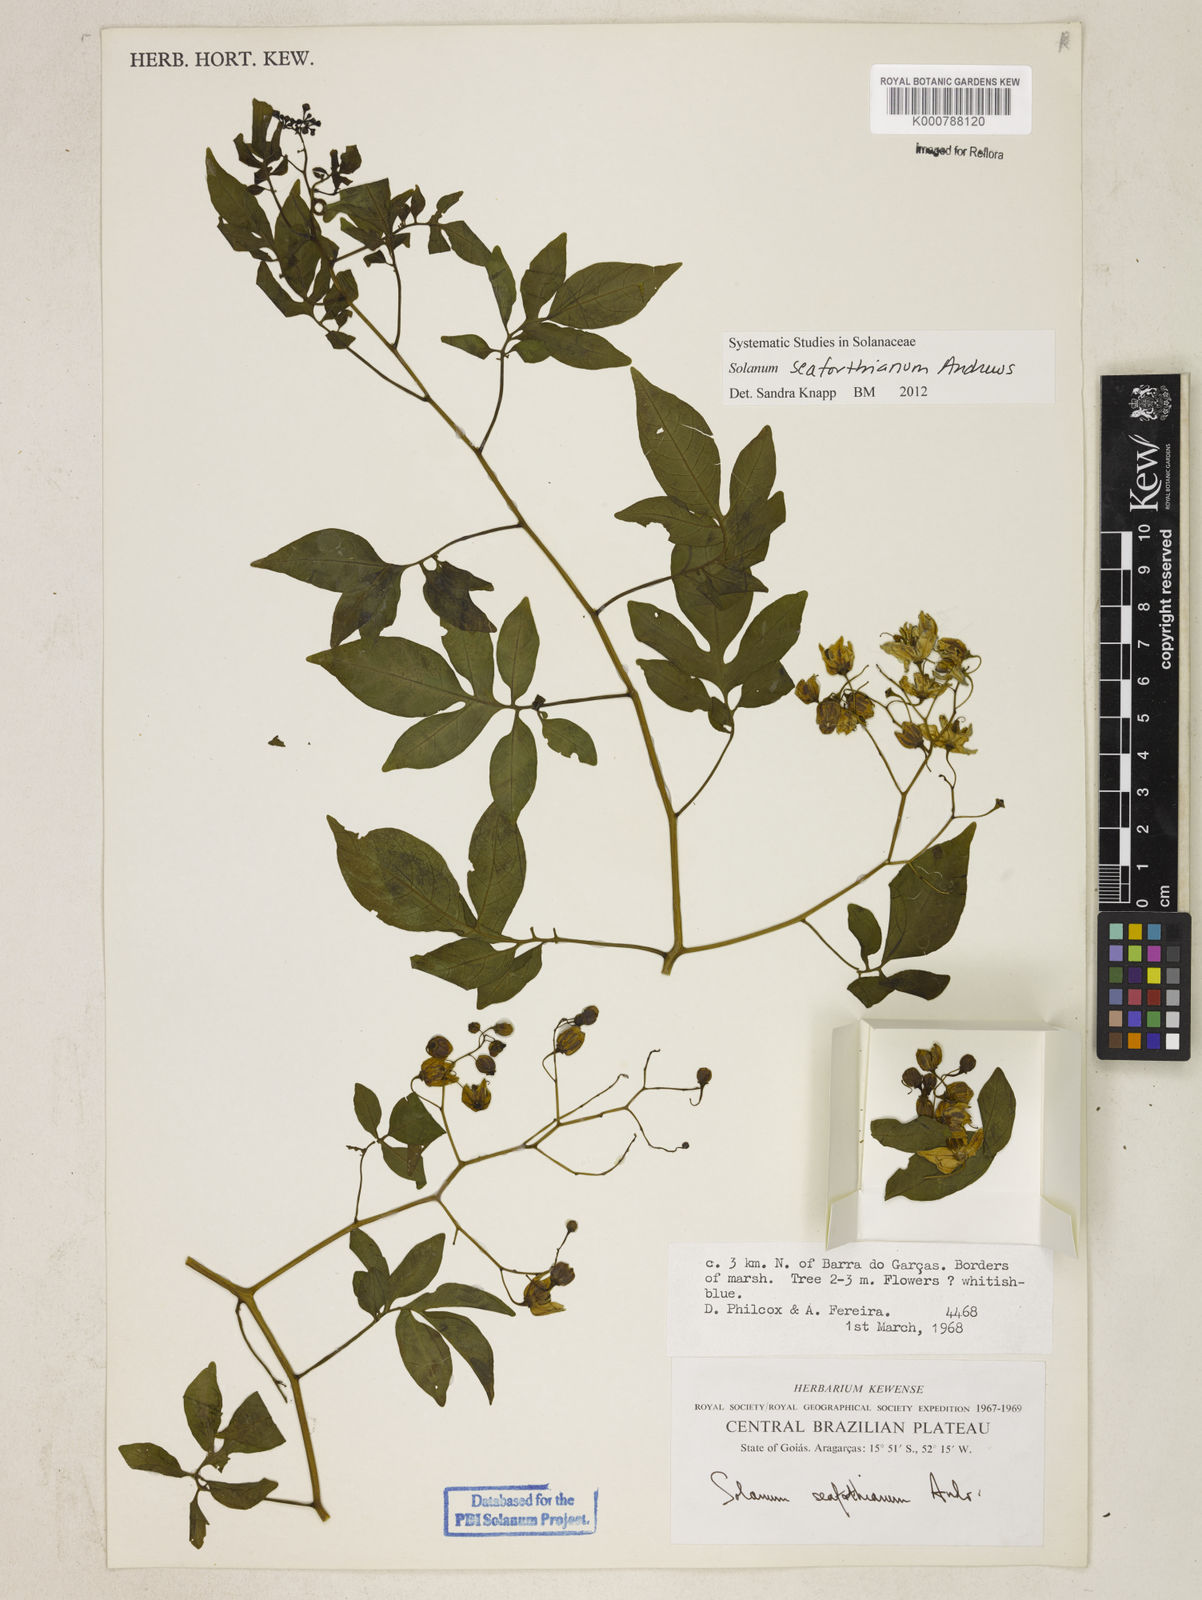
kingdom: Plantae
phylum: Tracheophyta
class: Magnoliopsida
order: Solanales
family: Solanaceae
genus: Solanum
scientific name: Solanum seaforthianum
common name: Brazilian nightshade
